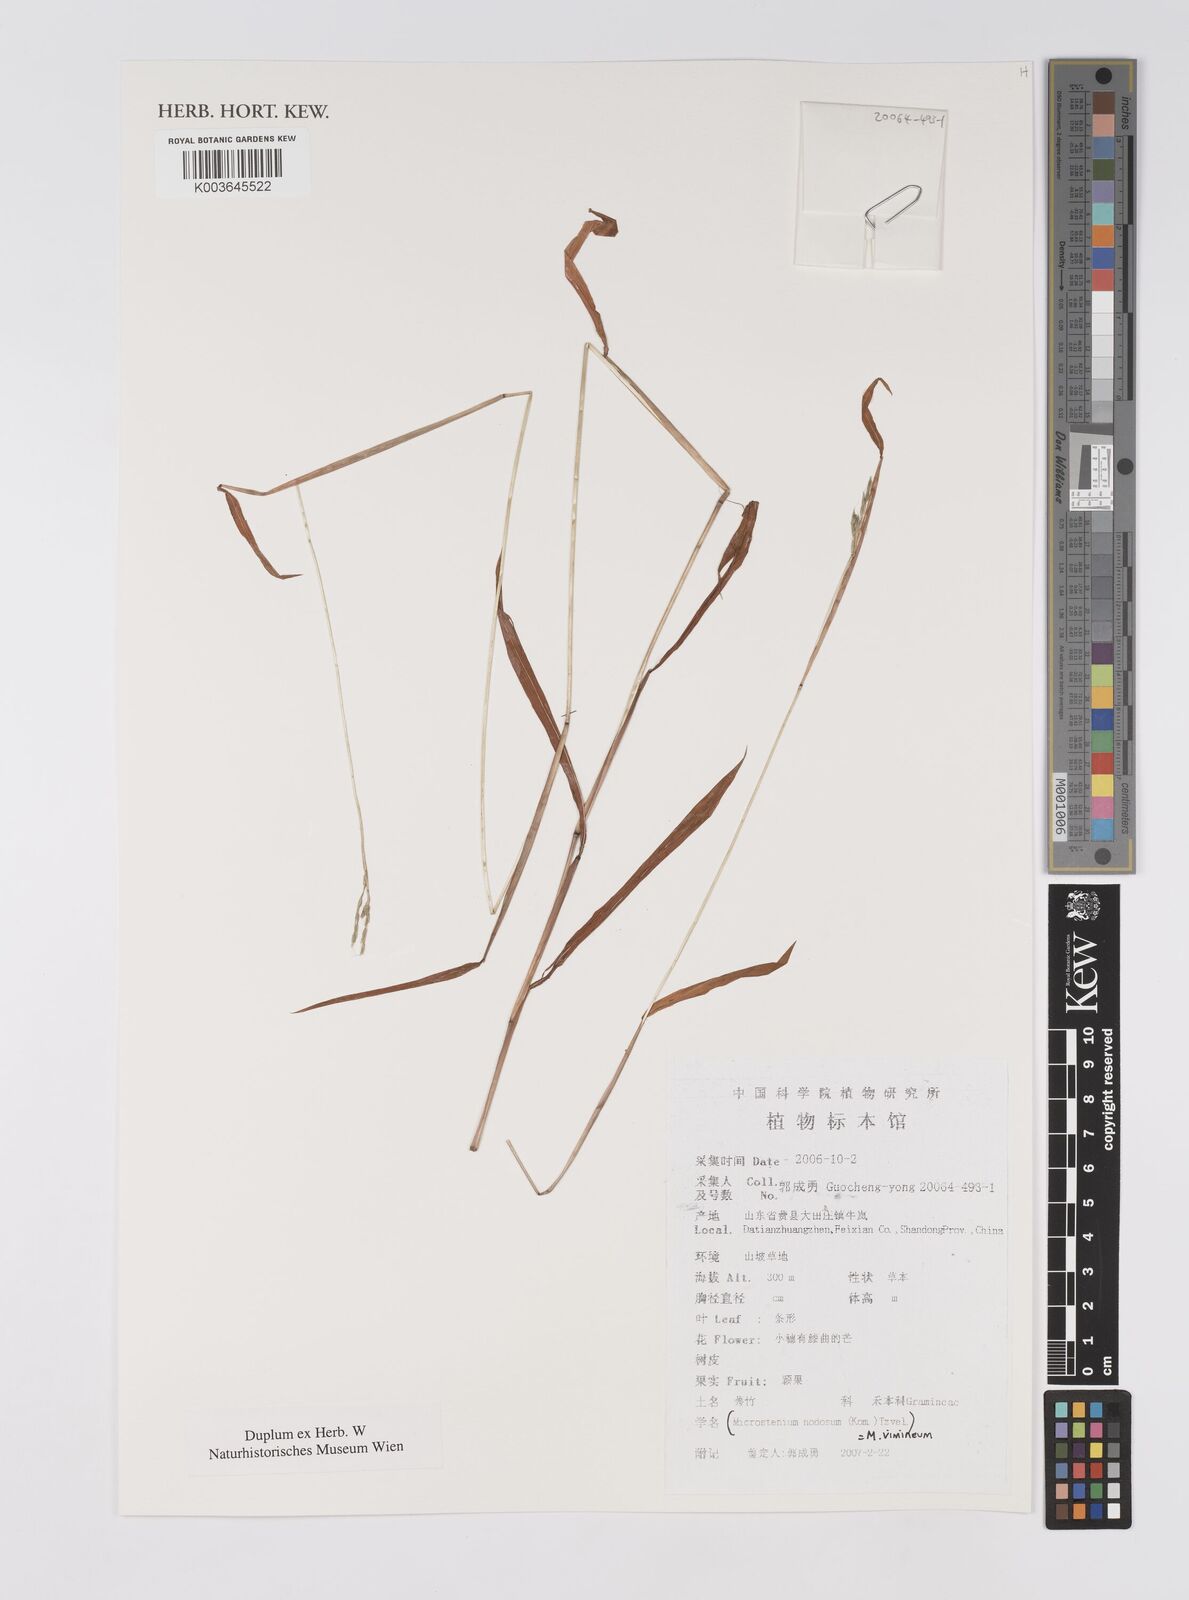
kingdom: Plantae
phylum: Tracheophyta
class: Liliopsida
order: Poales
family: Poaceae
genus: Microstegium
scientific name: Microstegium vimineum
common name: Japanese stiltgrass
